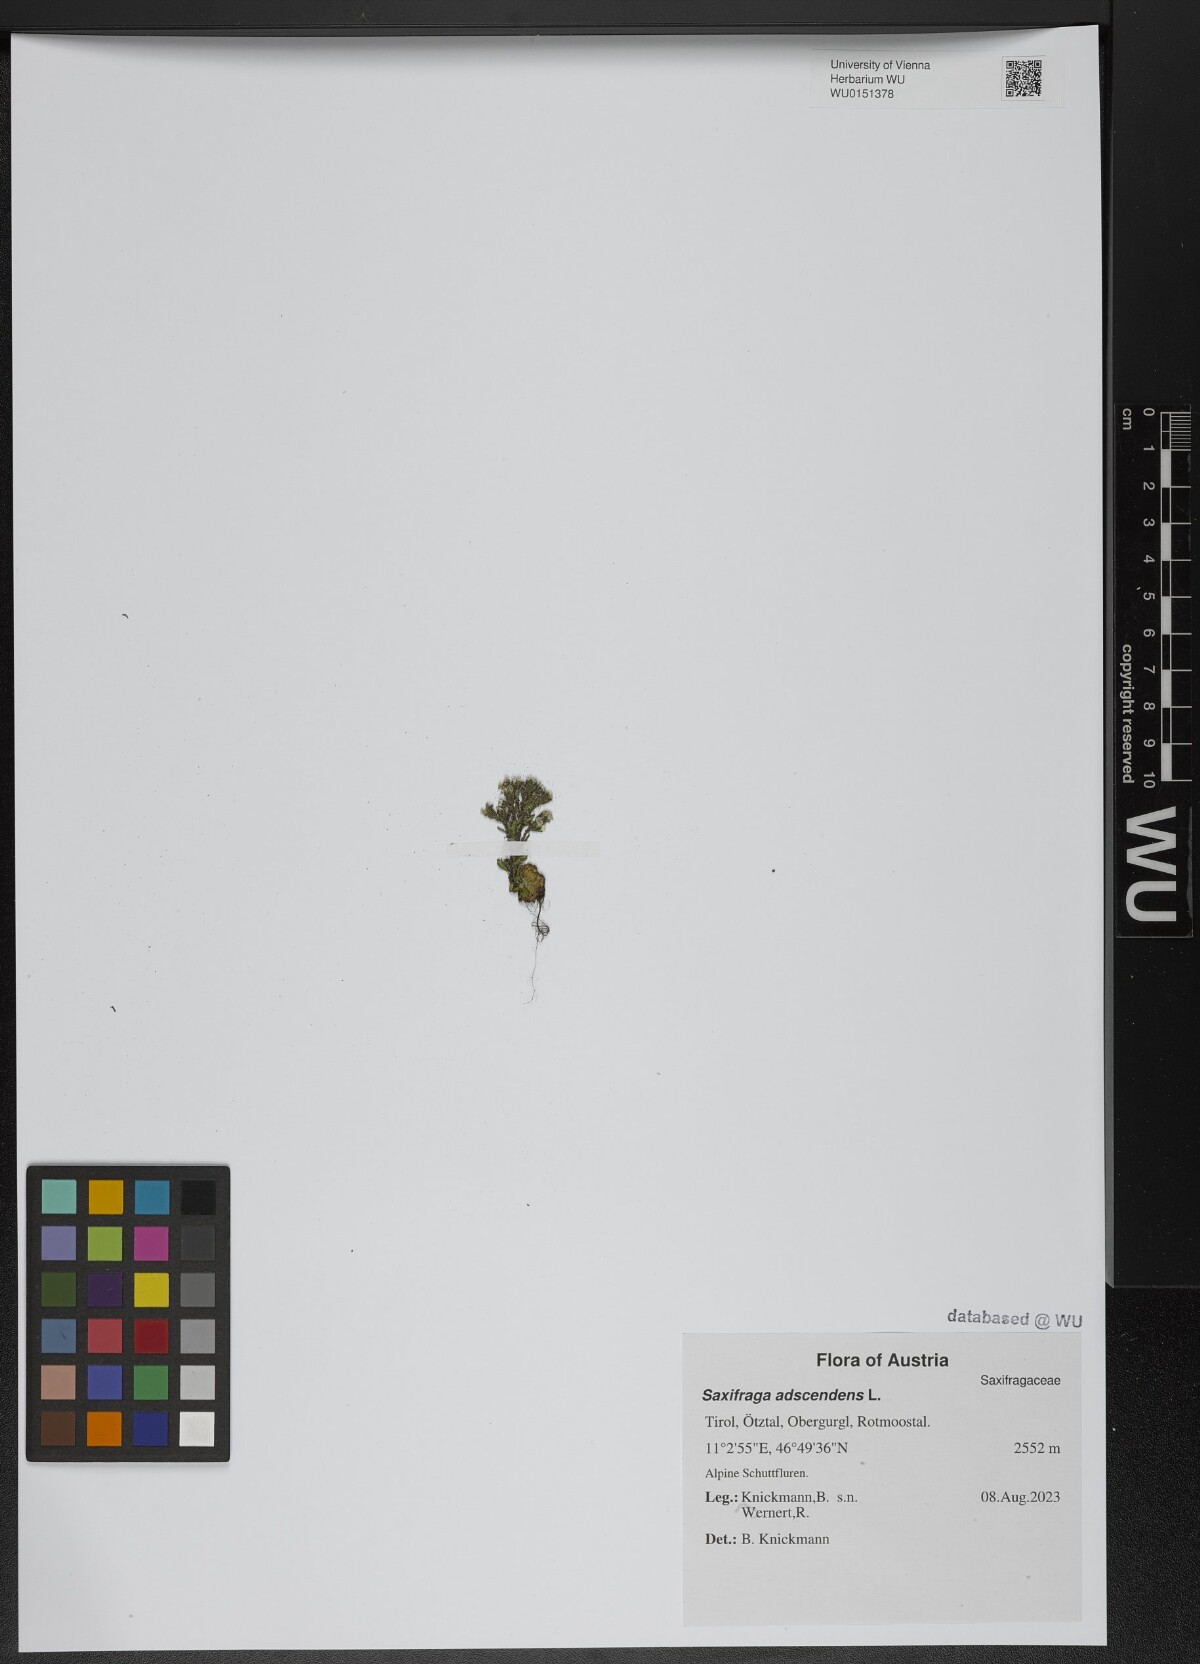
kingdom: Plantae
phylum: Tracheophyta
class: Magnoliopsida
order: Saxifragales
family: Saxifragaceae
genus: Saxifraga
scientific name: Saxifraga adscendens
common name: Ascending saxifrage
